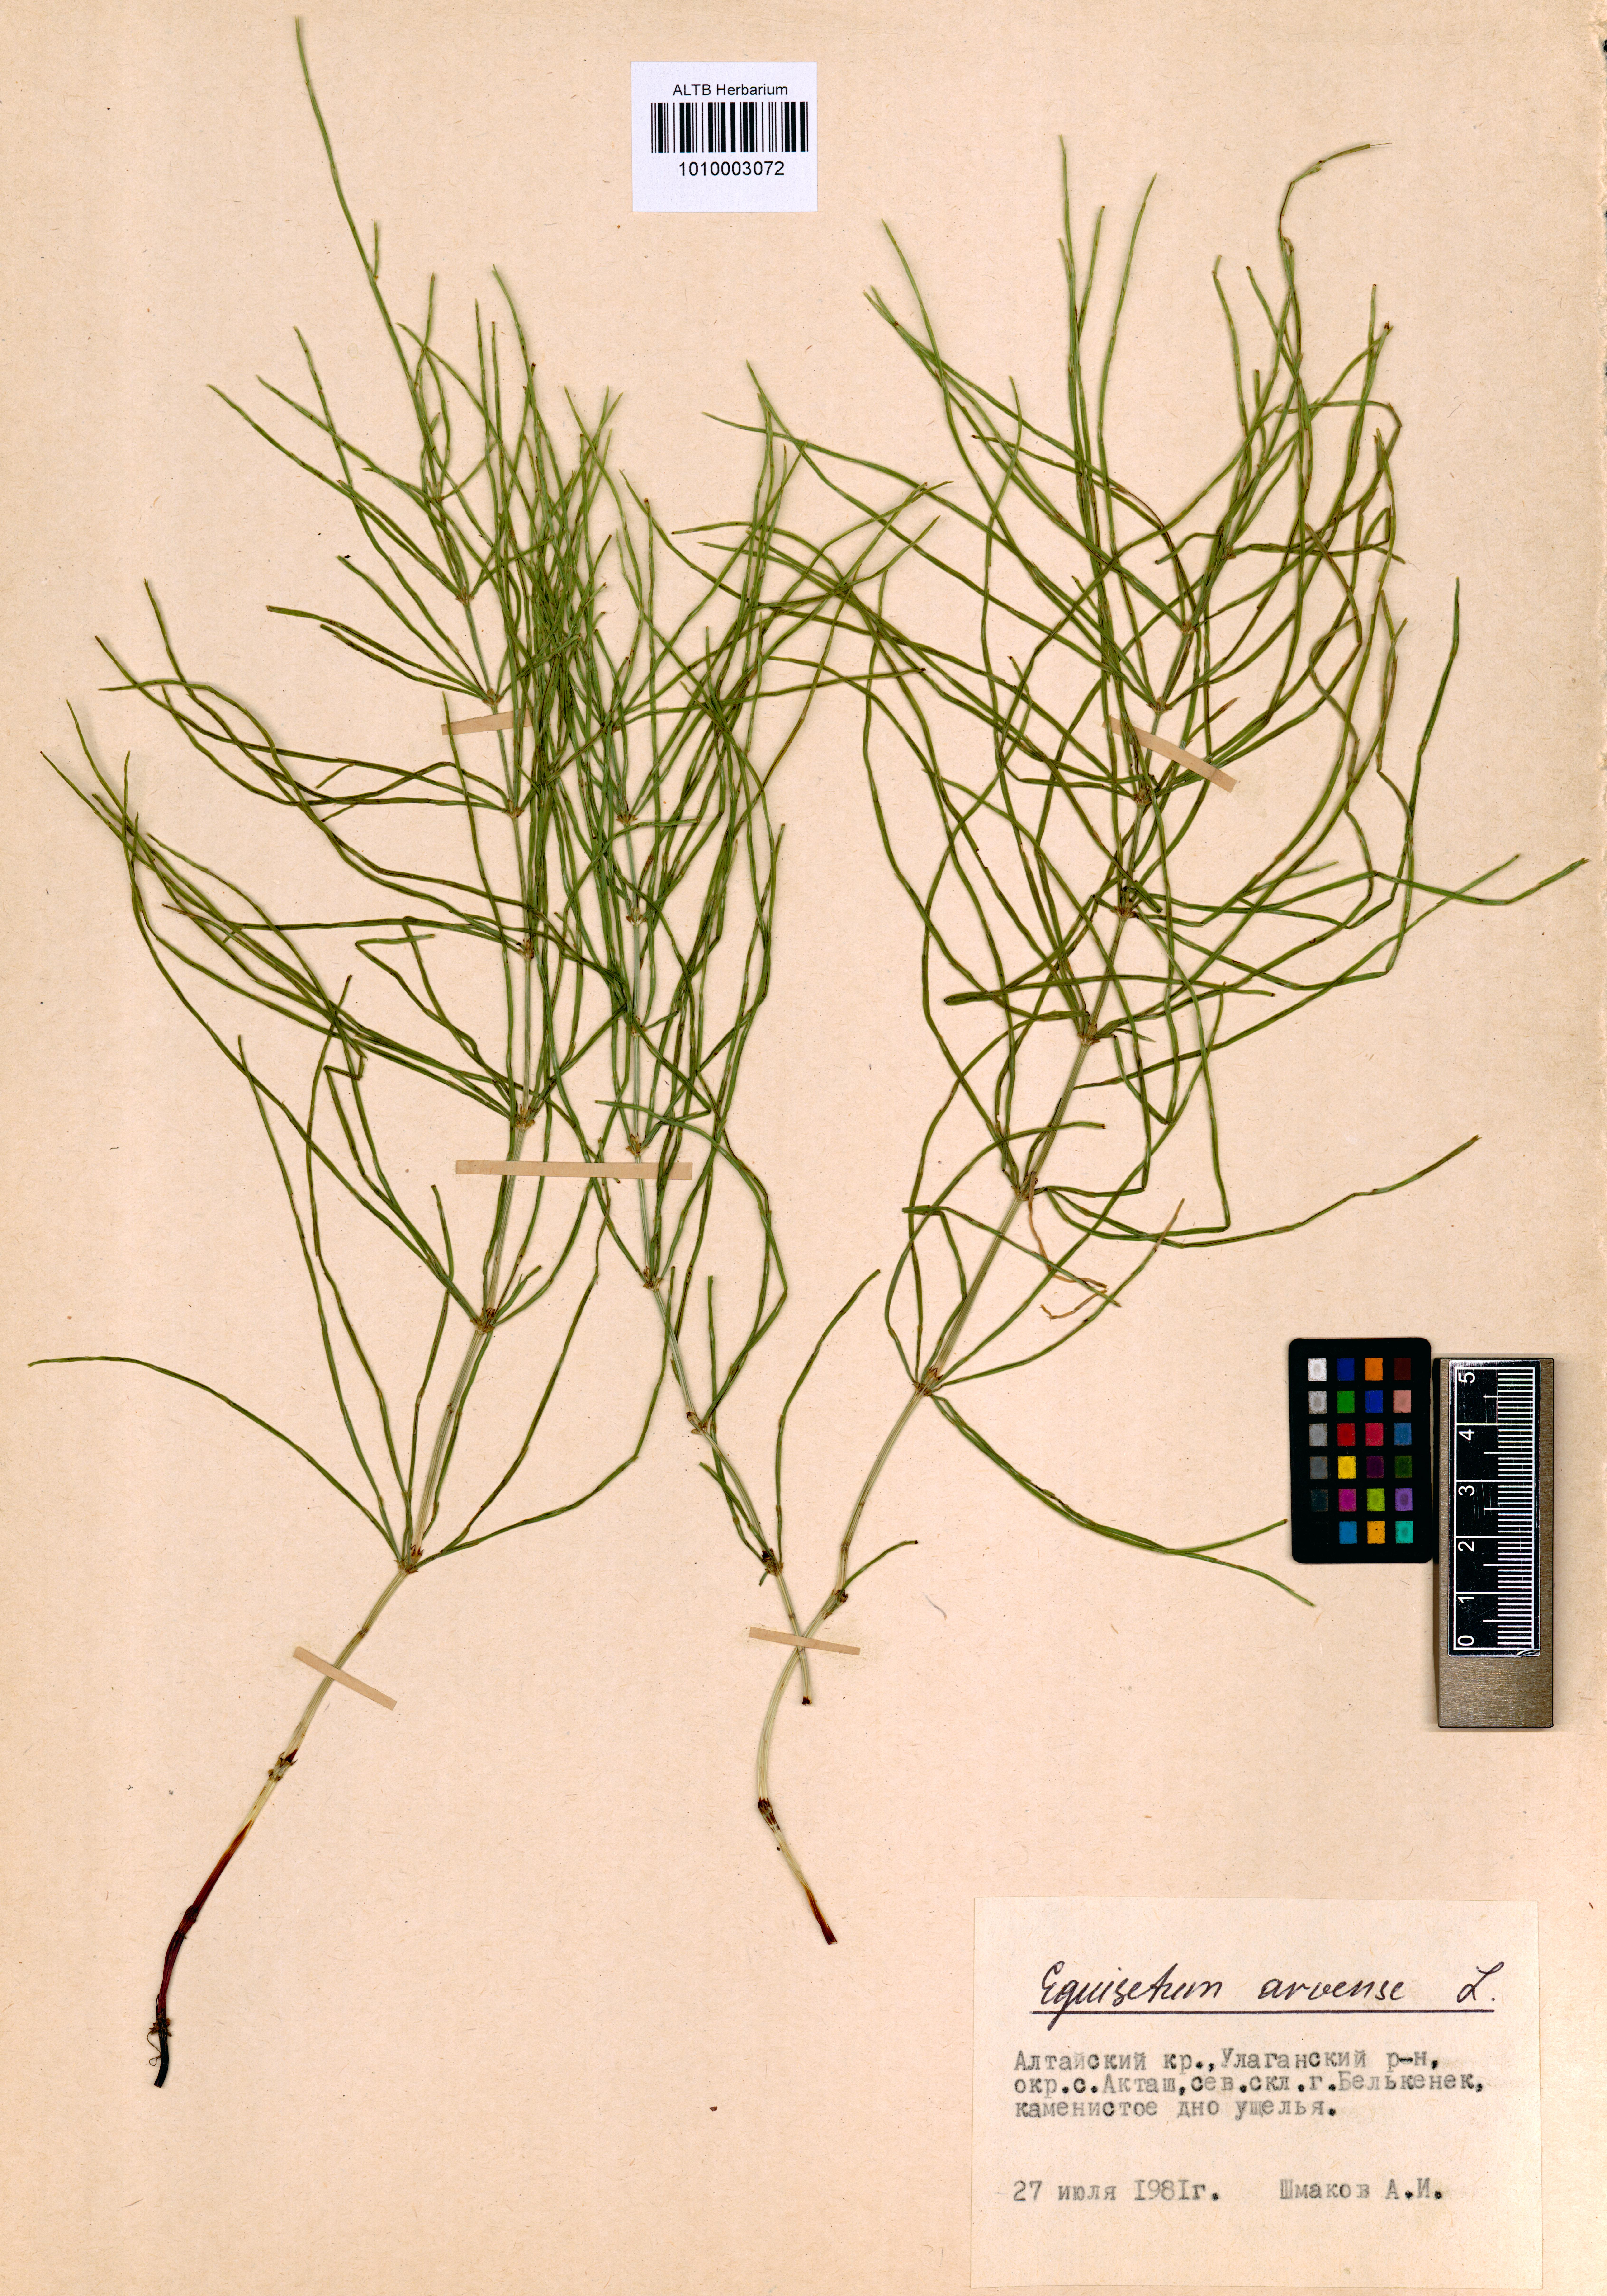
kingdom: Plantae
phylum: Tracheophyta
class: Polypodiopsida
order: Equisetales
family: Equisetaceae
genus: Equisetum
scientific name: Equisetum arvense
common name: Field horsetail
